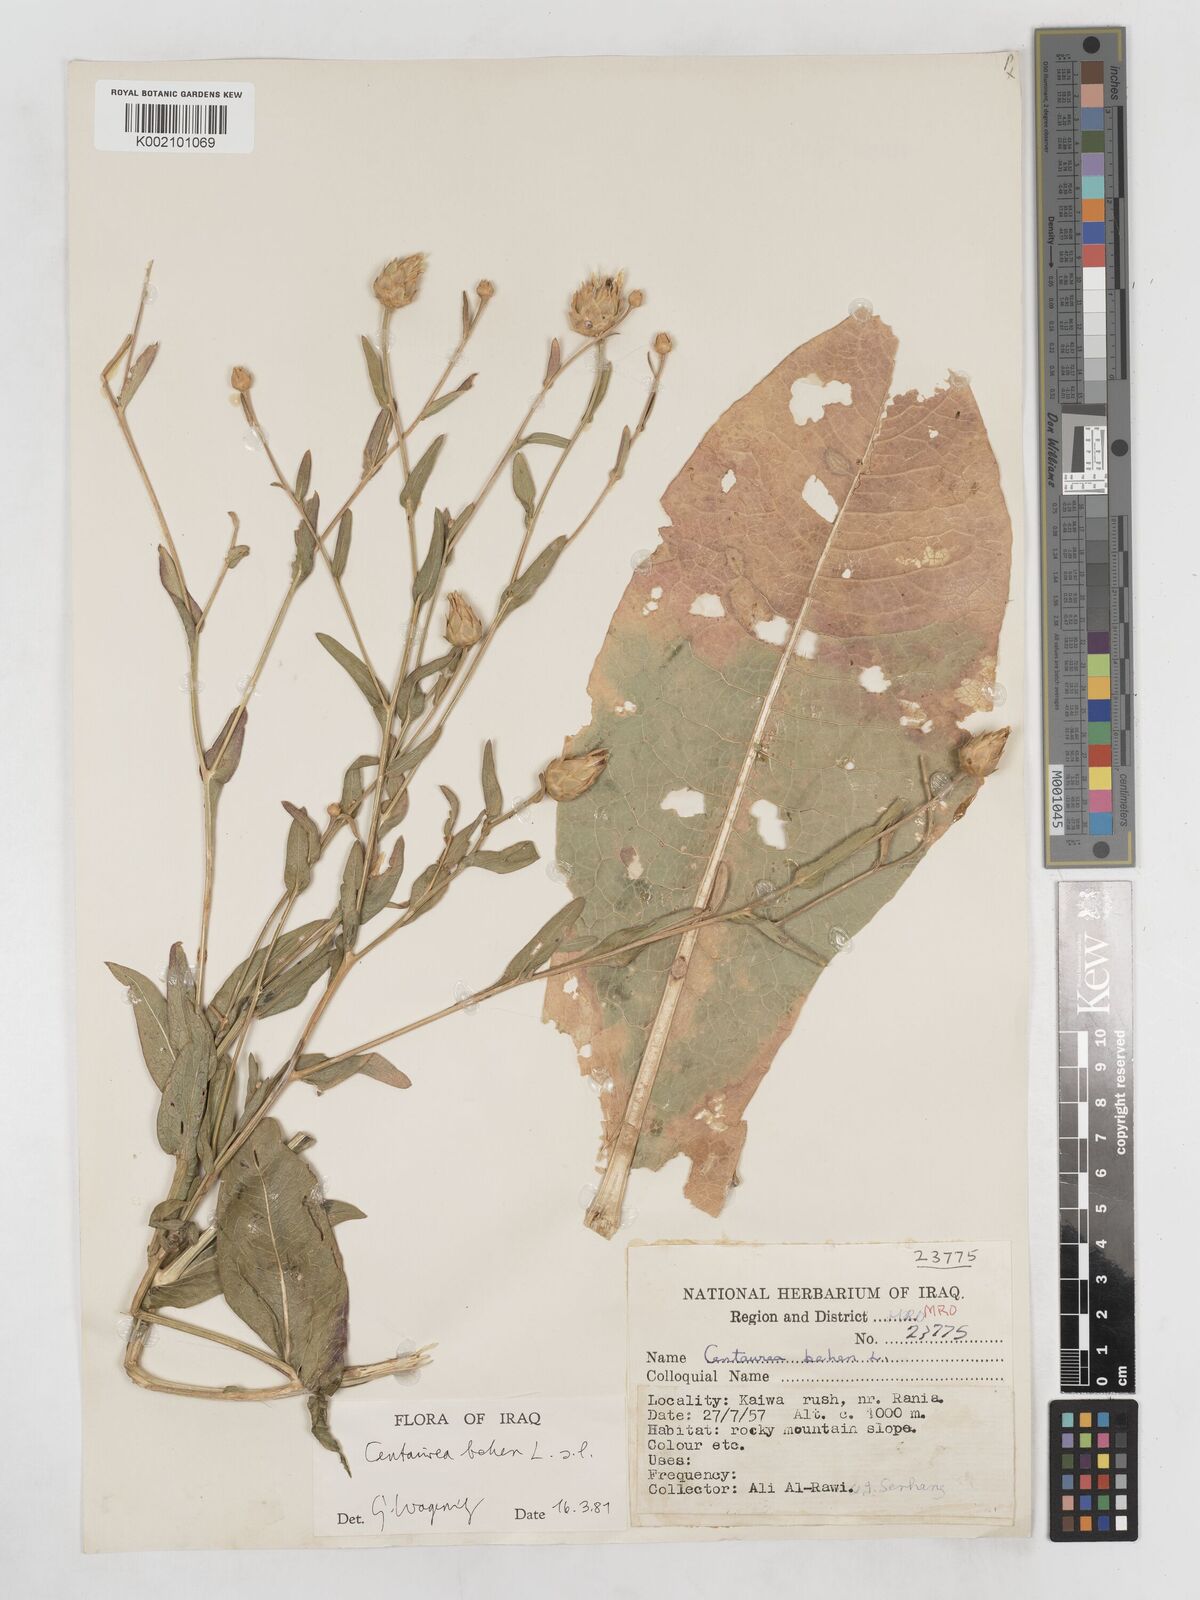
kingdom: Plantae
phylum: Tracheophyta
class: Magnoliopsida
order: Asterales
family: Asteraceae
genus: Centaurea
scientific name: Centaurea behen
